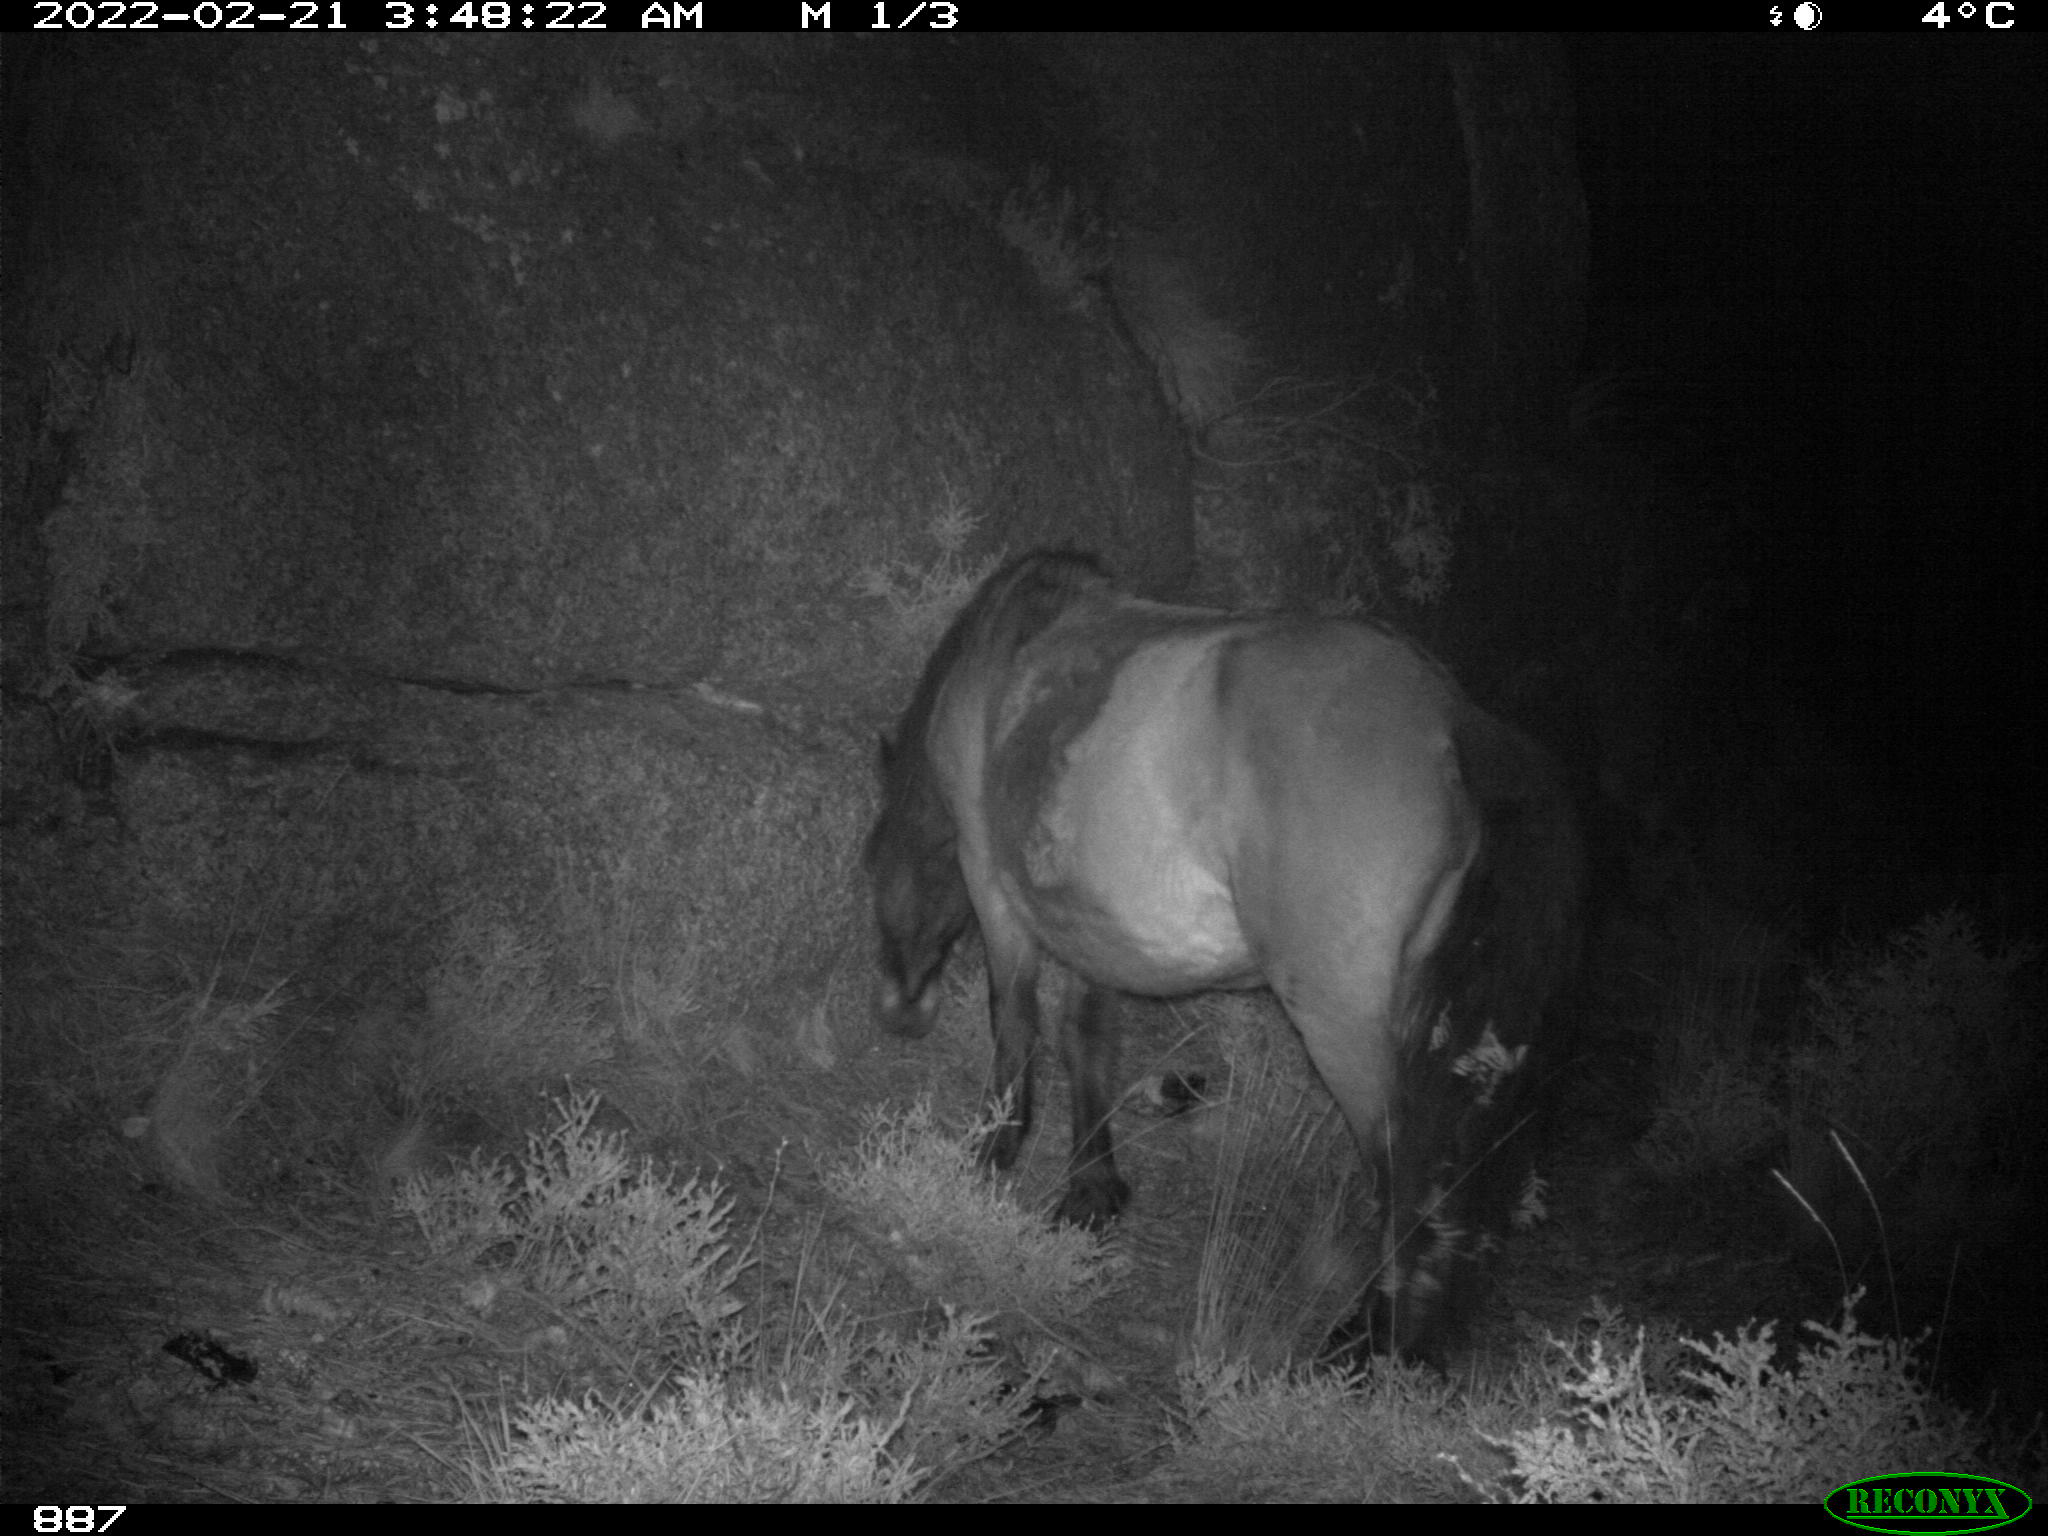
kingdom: Animalia
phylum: Chordata
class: Mammalia
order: Perissodactyla
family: Equidae
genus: Equus
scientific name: Equus caballus
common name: Horse
